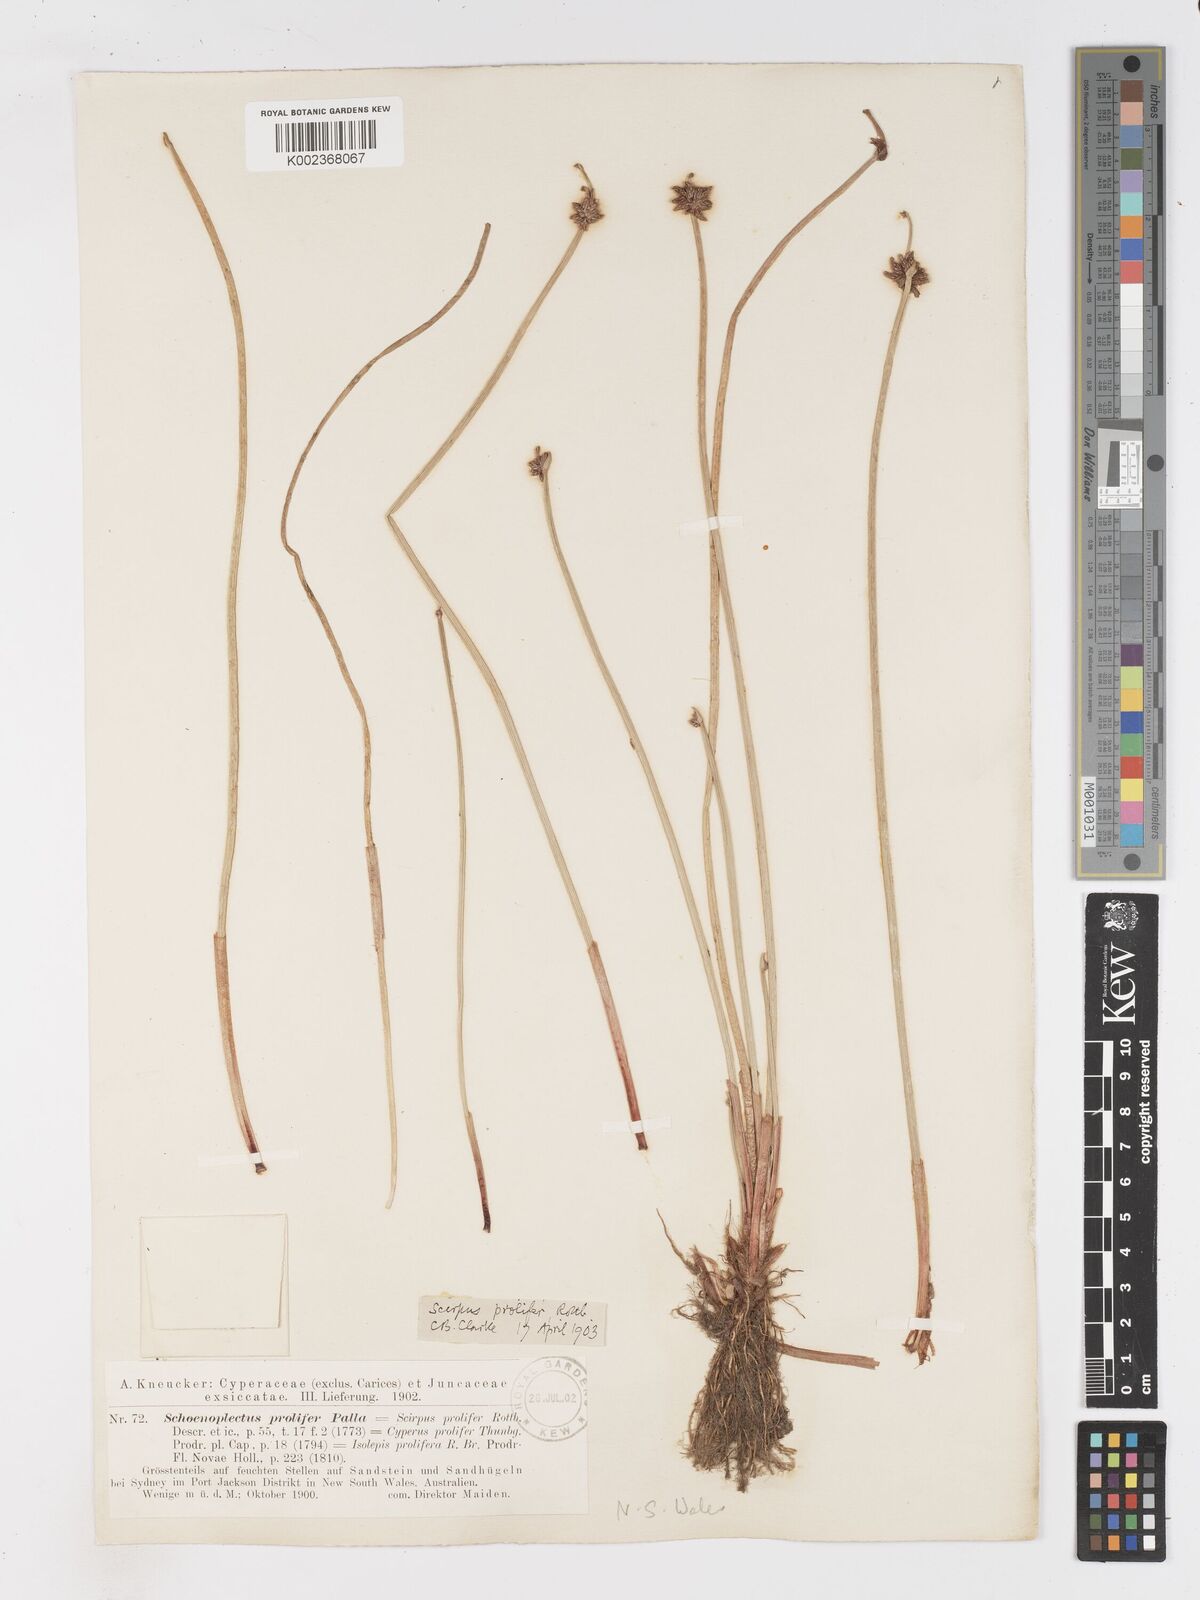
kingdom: Plantae
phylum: Tracheophyta
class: Liliopsida
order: Poales
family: Cyperaceae
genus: Isolepis
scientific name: Isolepis prolifera
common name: Proliferating bulrush
